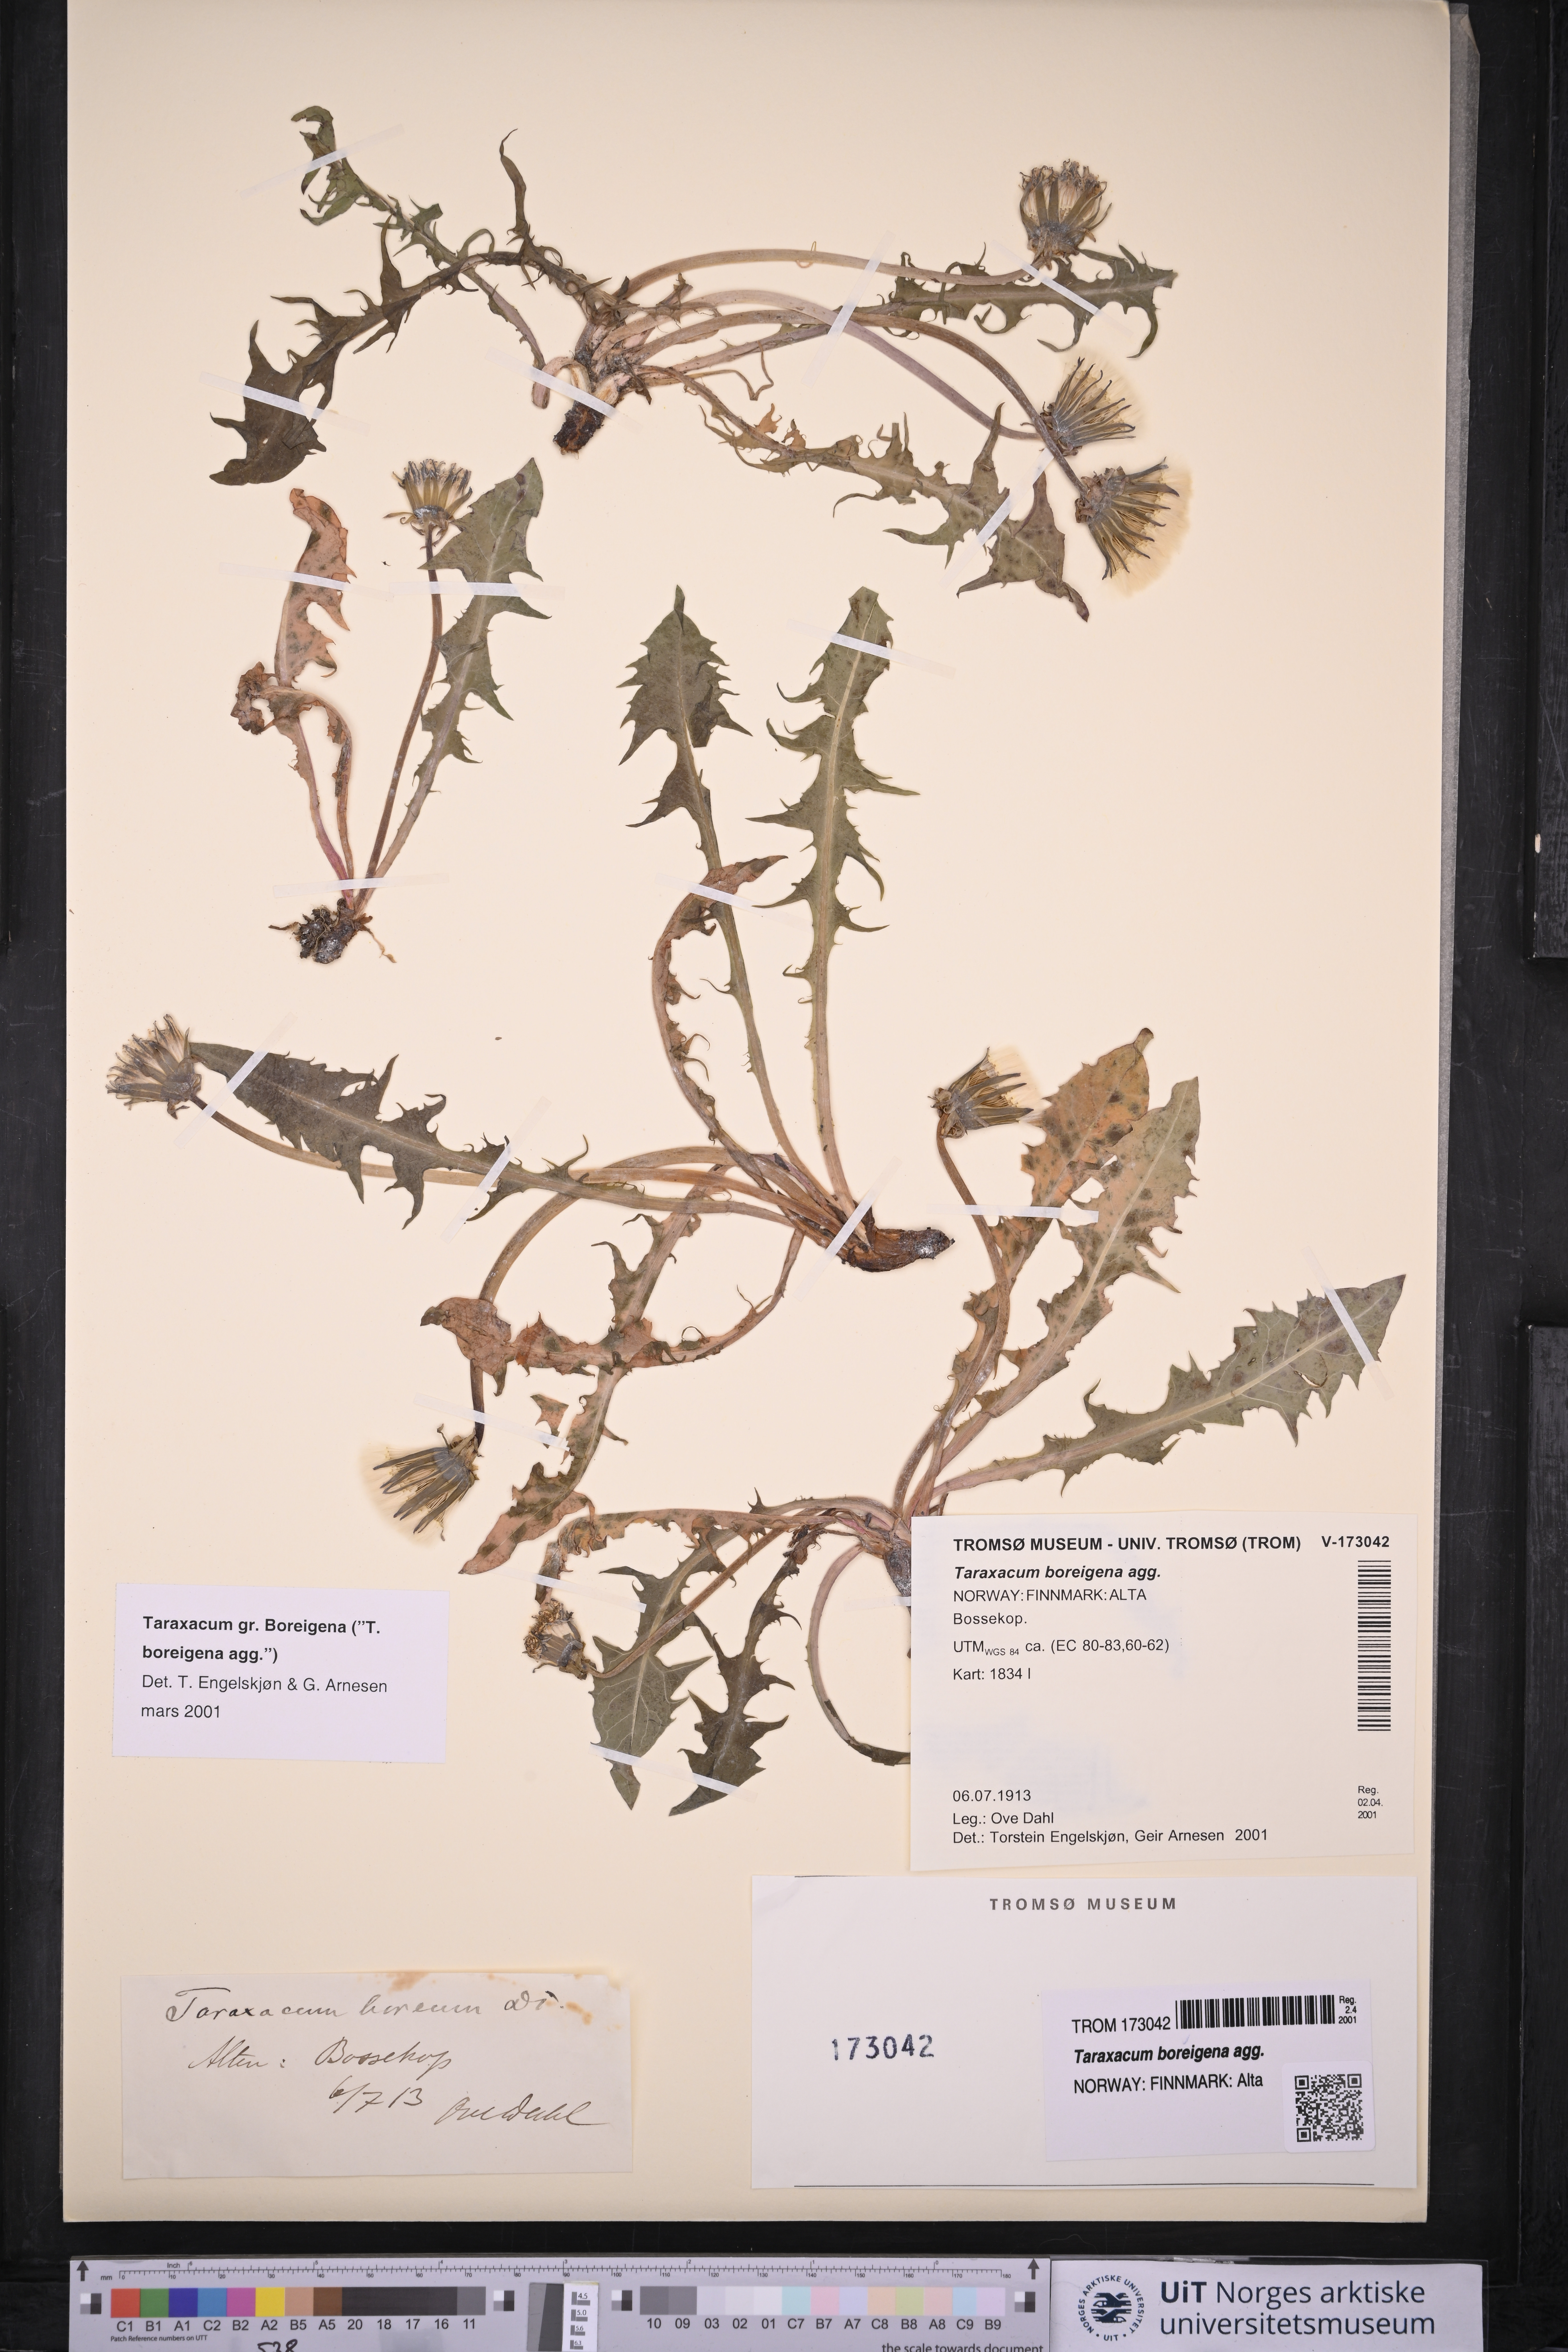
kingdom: Plantae
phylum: Tracheophyta
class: Magnoliopsida
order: Asterales
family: Asteraceae
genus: Taraxacum
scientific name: Taraxacum
